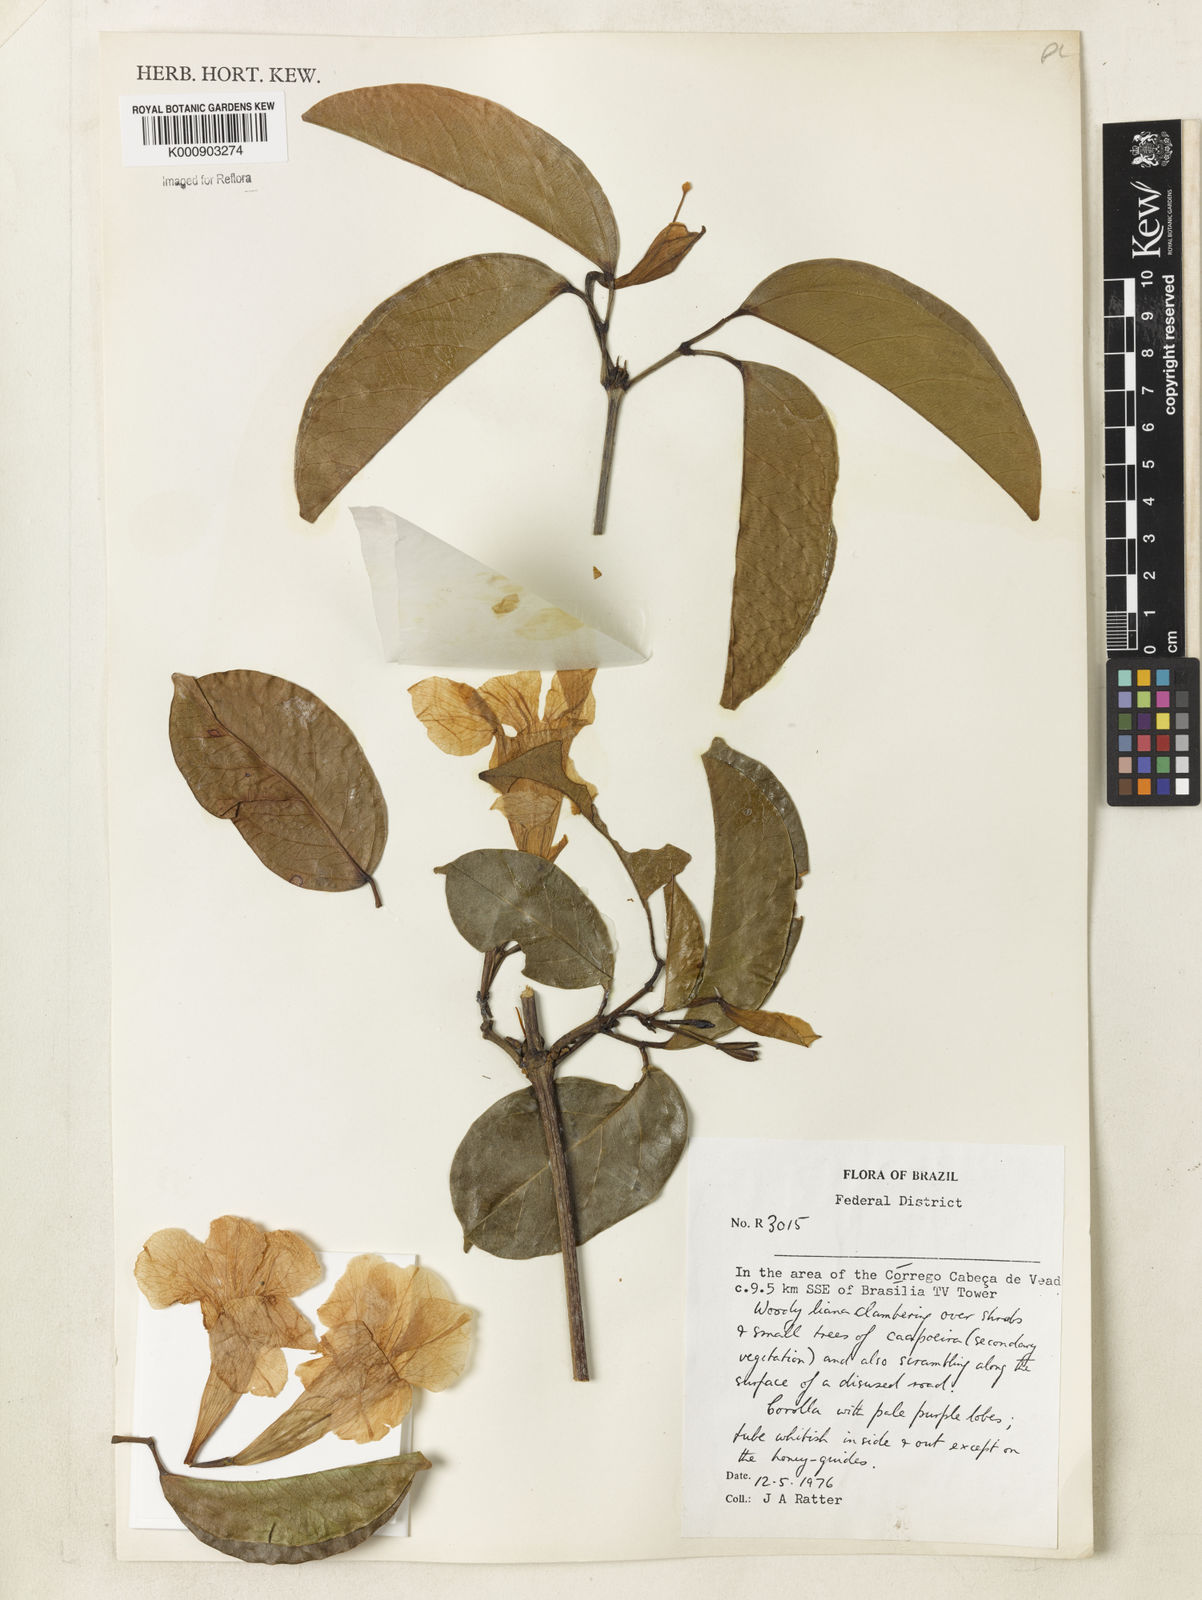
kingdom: Plantae
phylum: Tracheophyta
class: Magnoliopsida
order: Lamiales
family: Bignoniaceae
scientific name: Bignoniaceae
